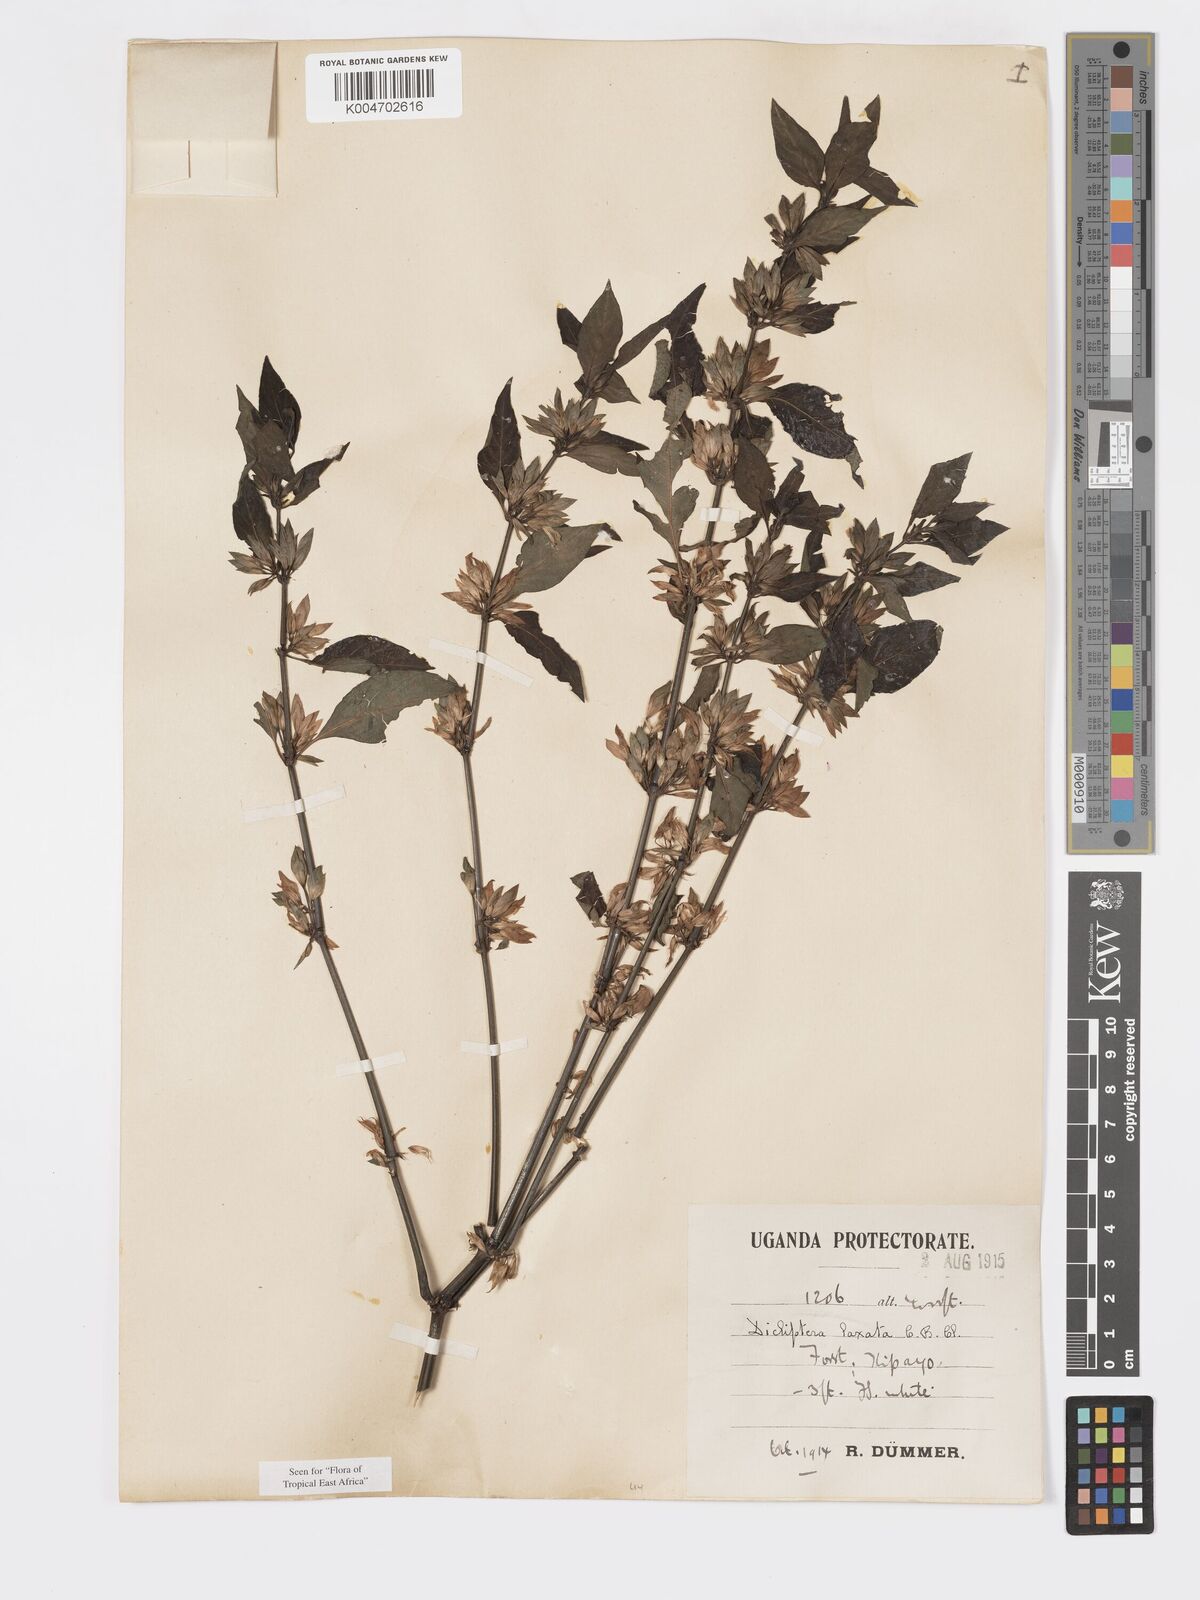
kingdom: Plantae
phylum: Tracheophyta
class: Magnoliopsida
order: Lamiales
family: Acanthaceae
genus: Dicliptera
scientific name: Dicliptera laxata
